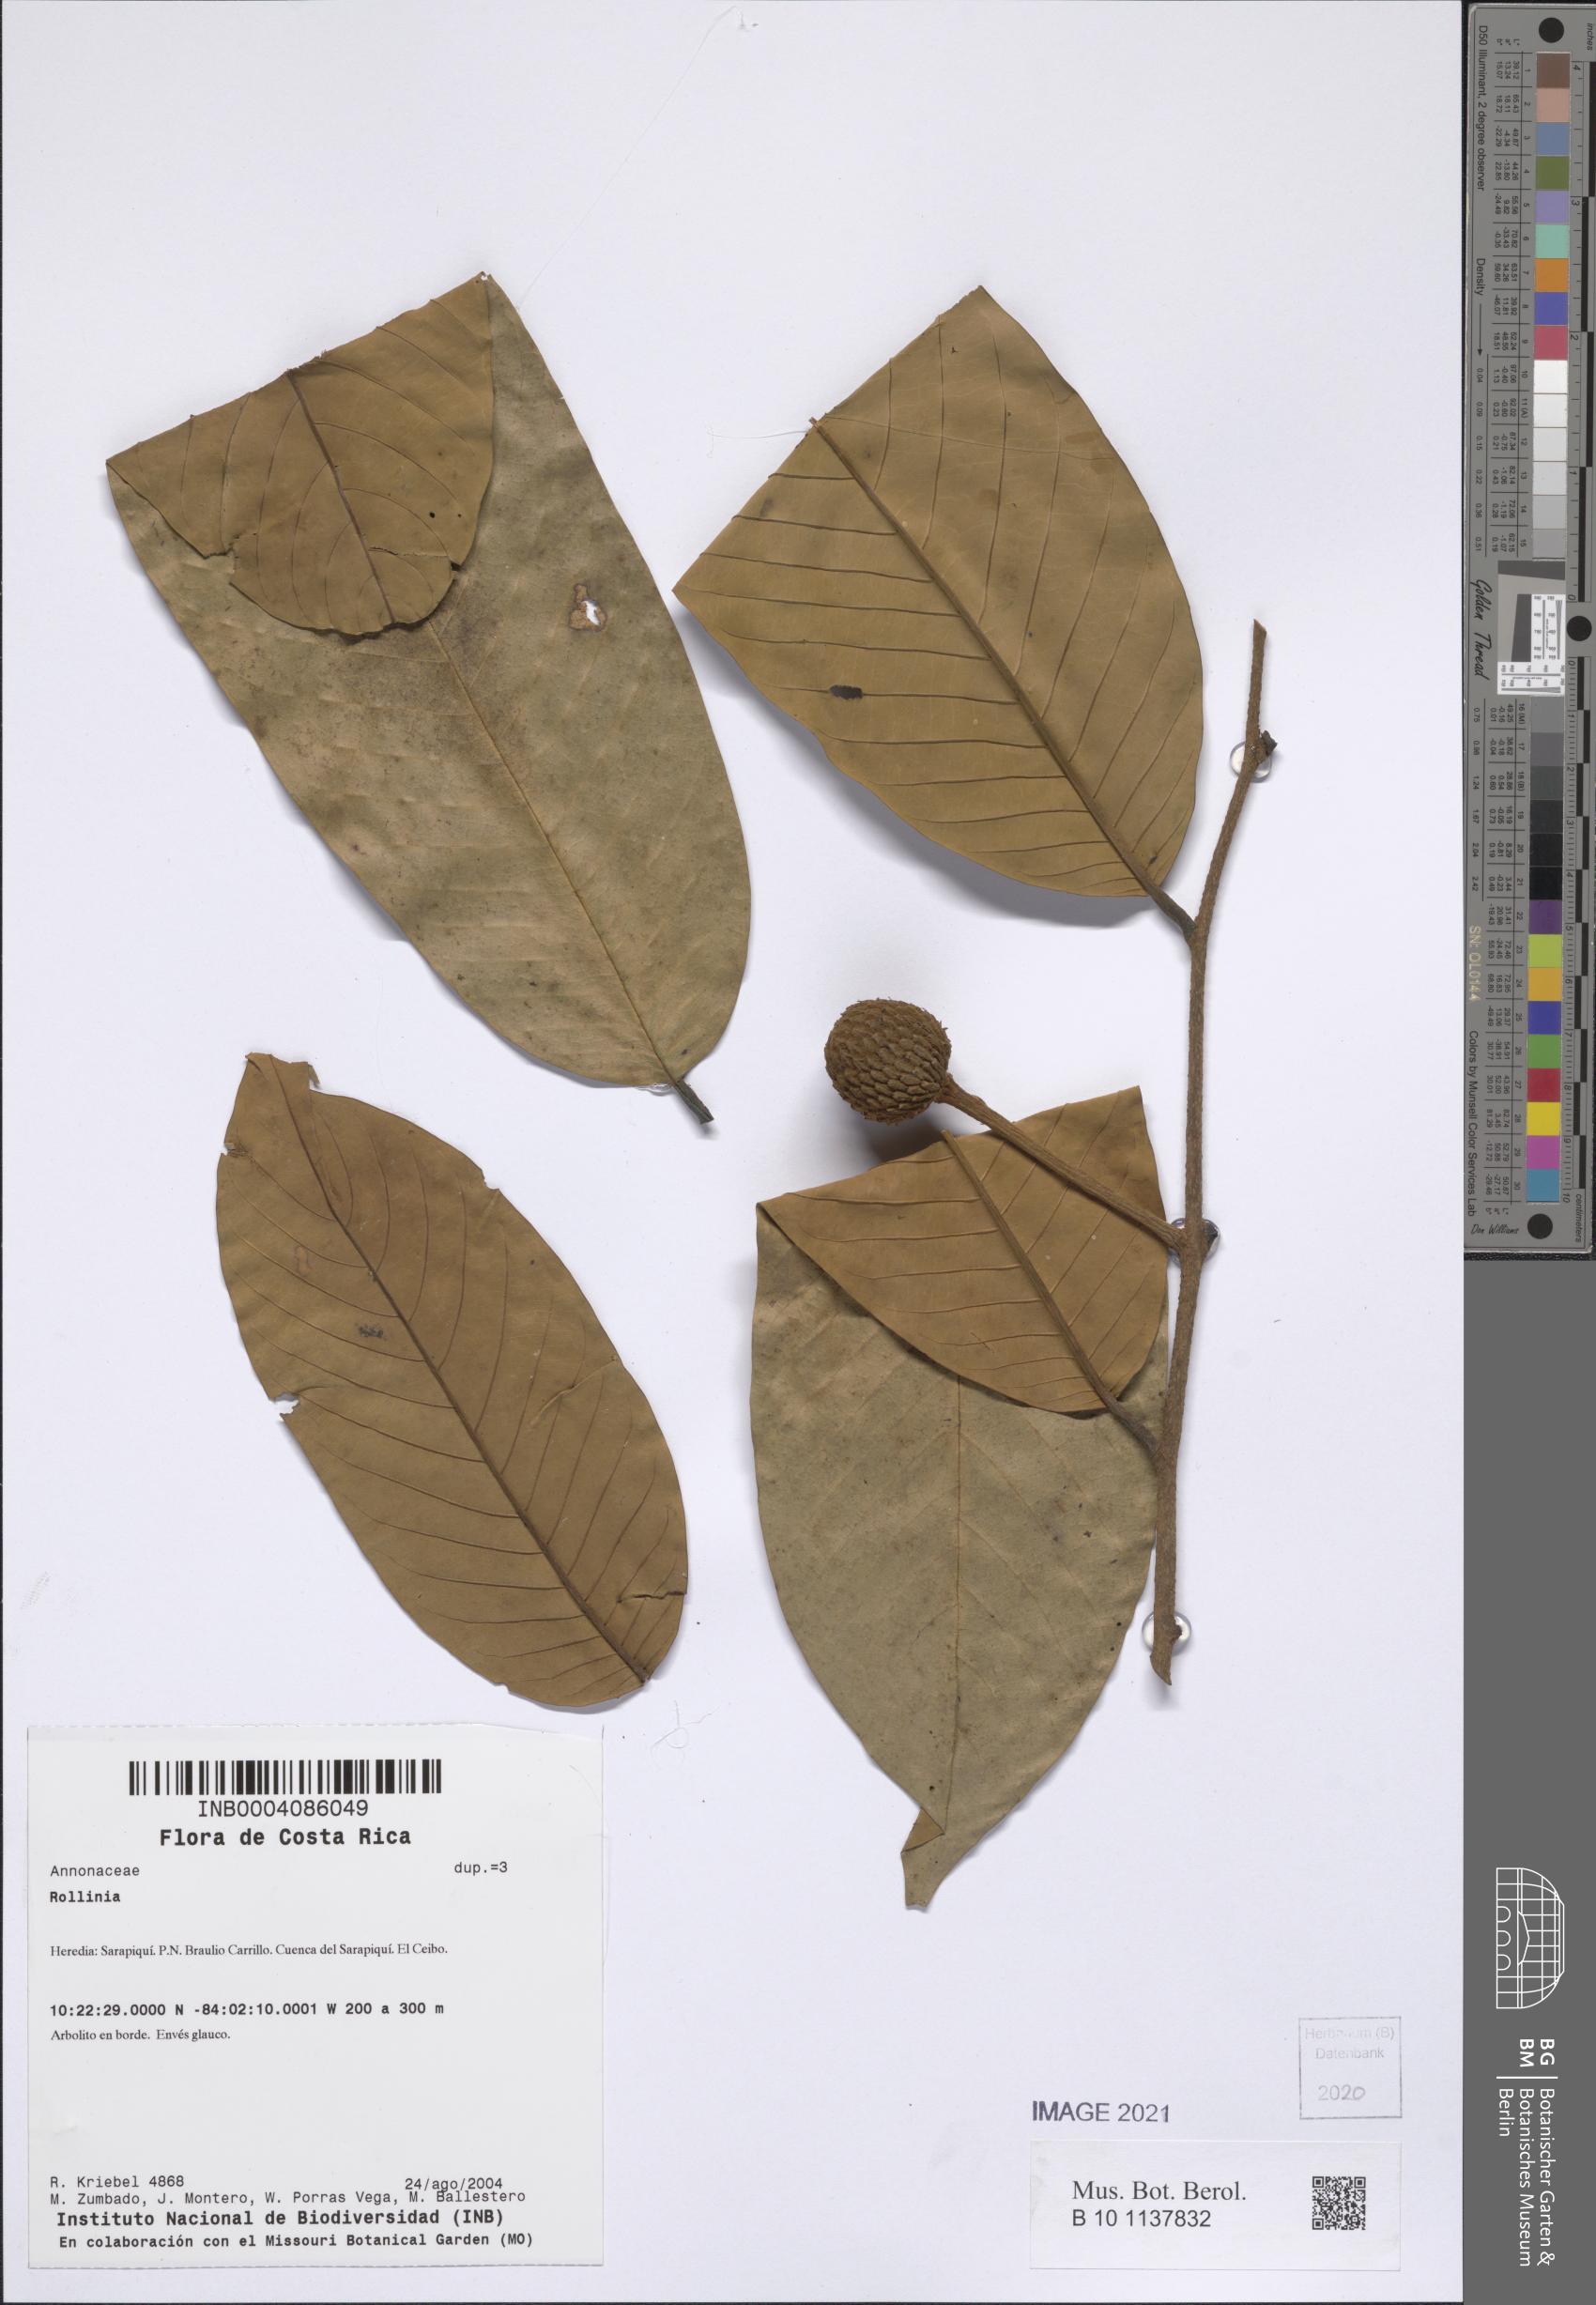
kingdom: Plantae
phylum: Tracheophyta
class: Magnoliopsida
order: Magnoliales
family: Annonaceae
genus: Annona
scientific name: Annona
